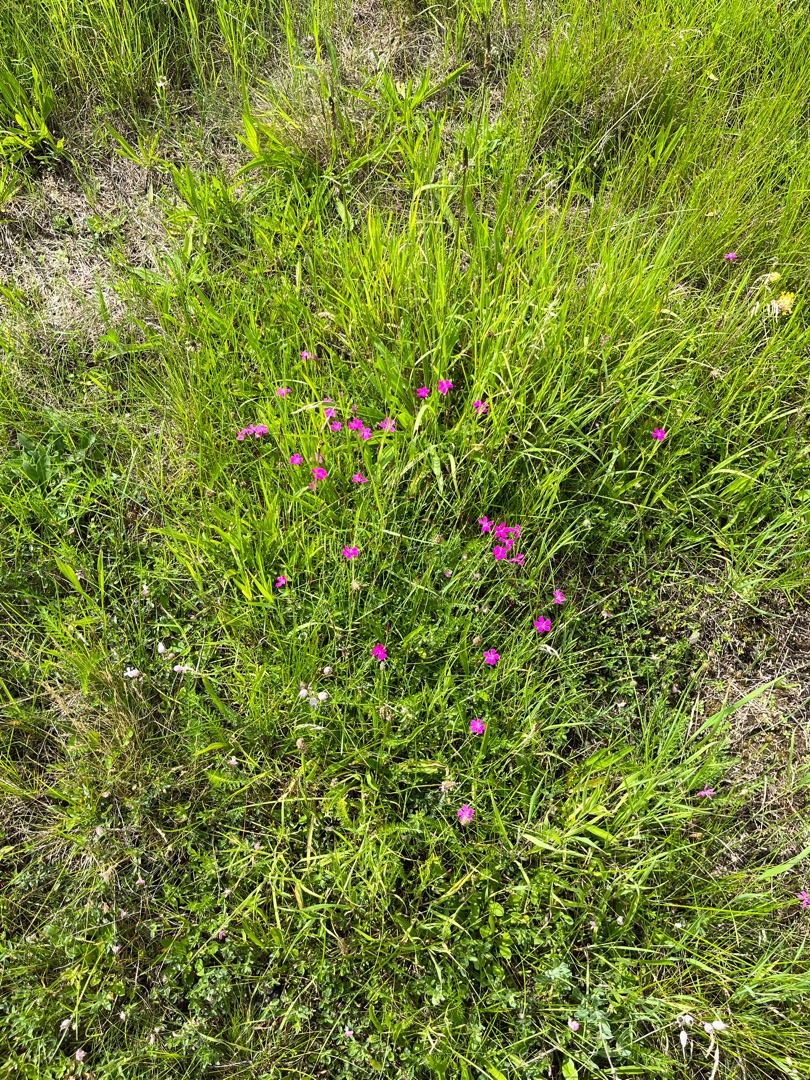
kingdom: Plantae
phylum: Tracheophyta
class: Magnoliopsida
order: Caryophyllales
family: Caryophyllaceae
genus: Dianthus
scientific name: Dianthus deltoides
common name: Bakke-nellike
